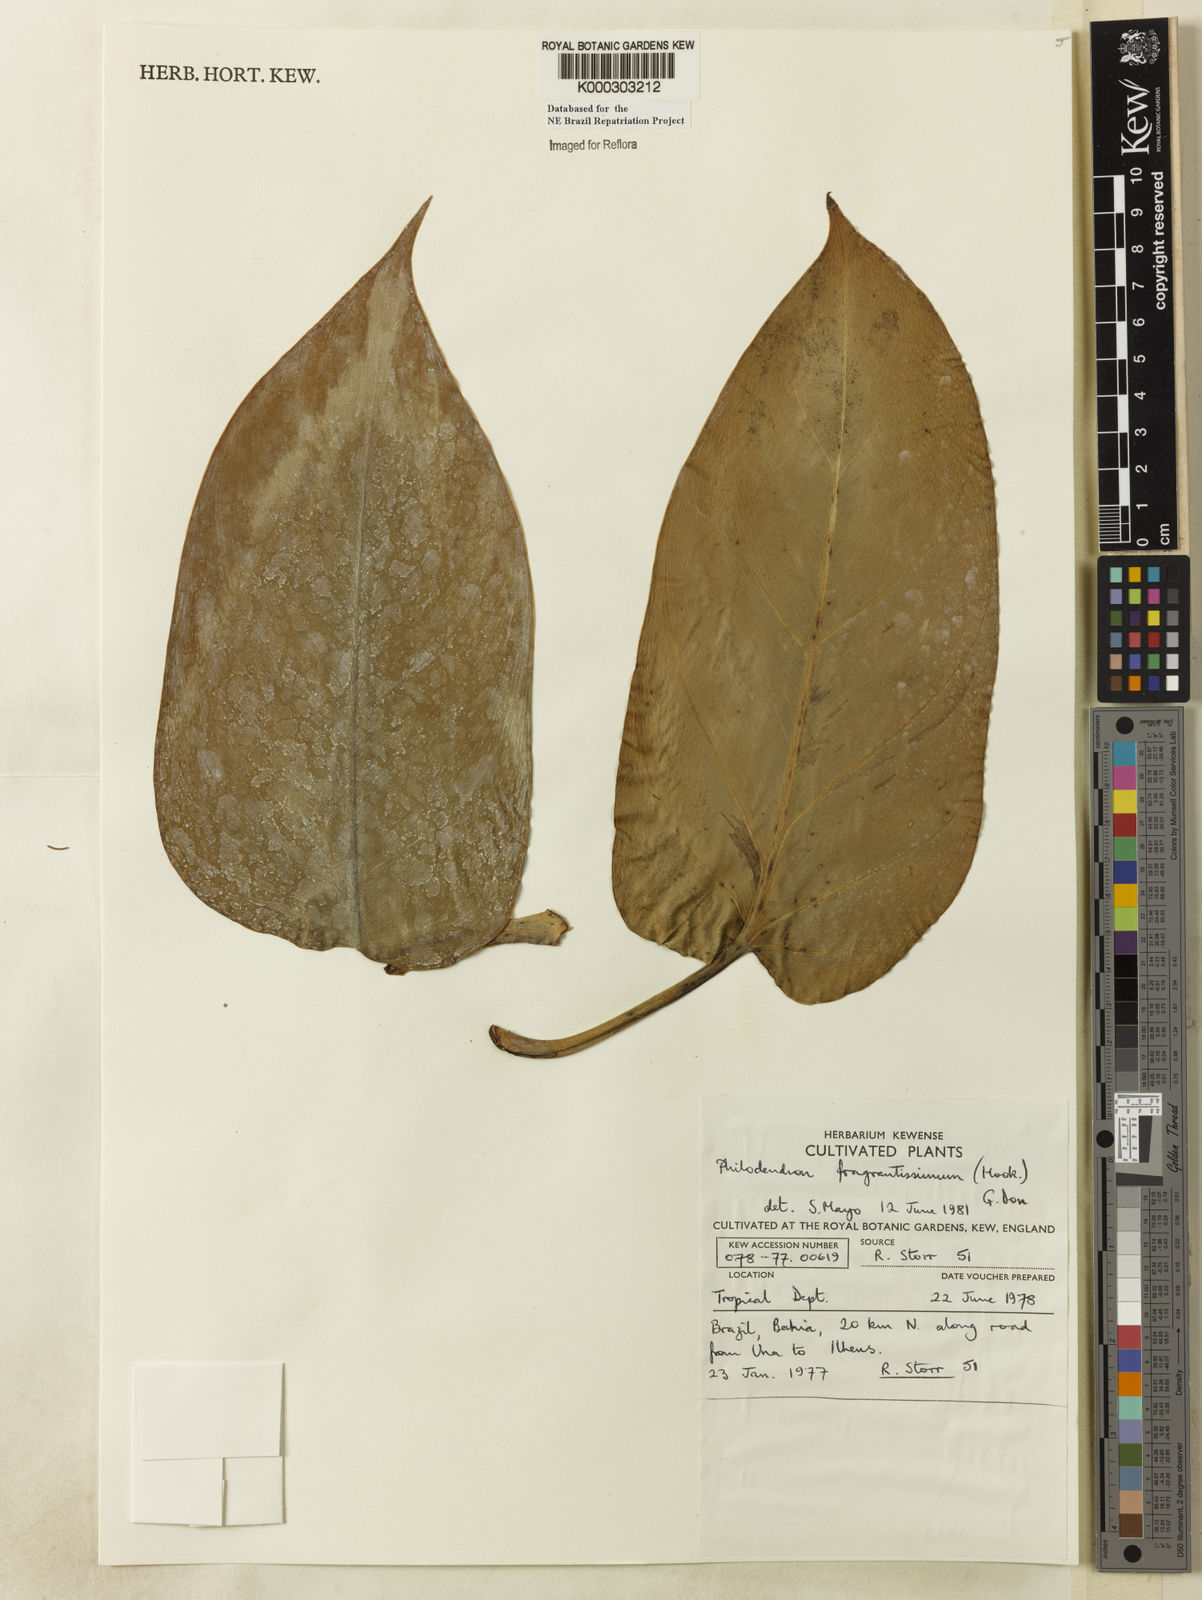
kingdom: Plantae
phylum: Tracheophyta
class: Liliopsida
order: Alismatales
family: Araceae
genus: Philodendron
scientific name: Philodendron fragrantissimum
